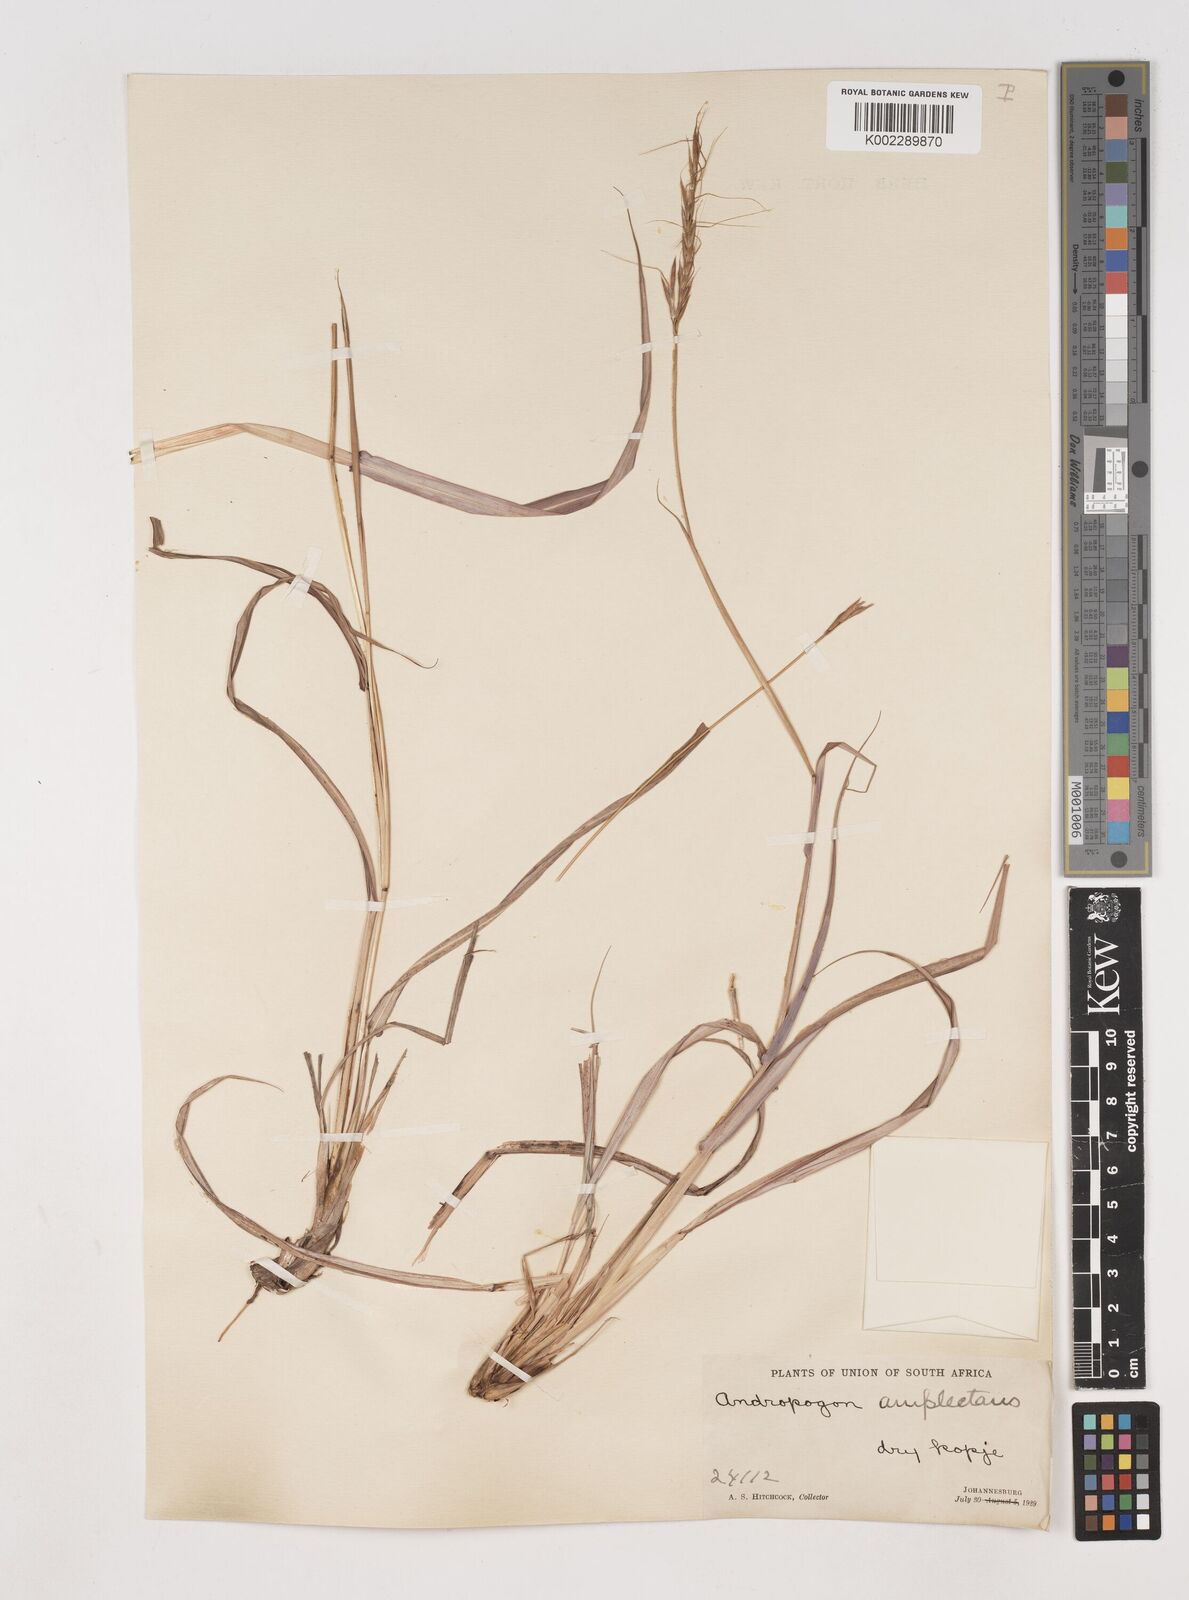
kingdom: Plantae
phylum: Tracheophyta
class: Liliopsida
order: Poales
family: Poaceae
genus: Diheteropogon
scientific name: Diheteropogon amplectens
